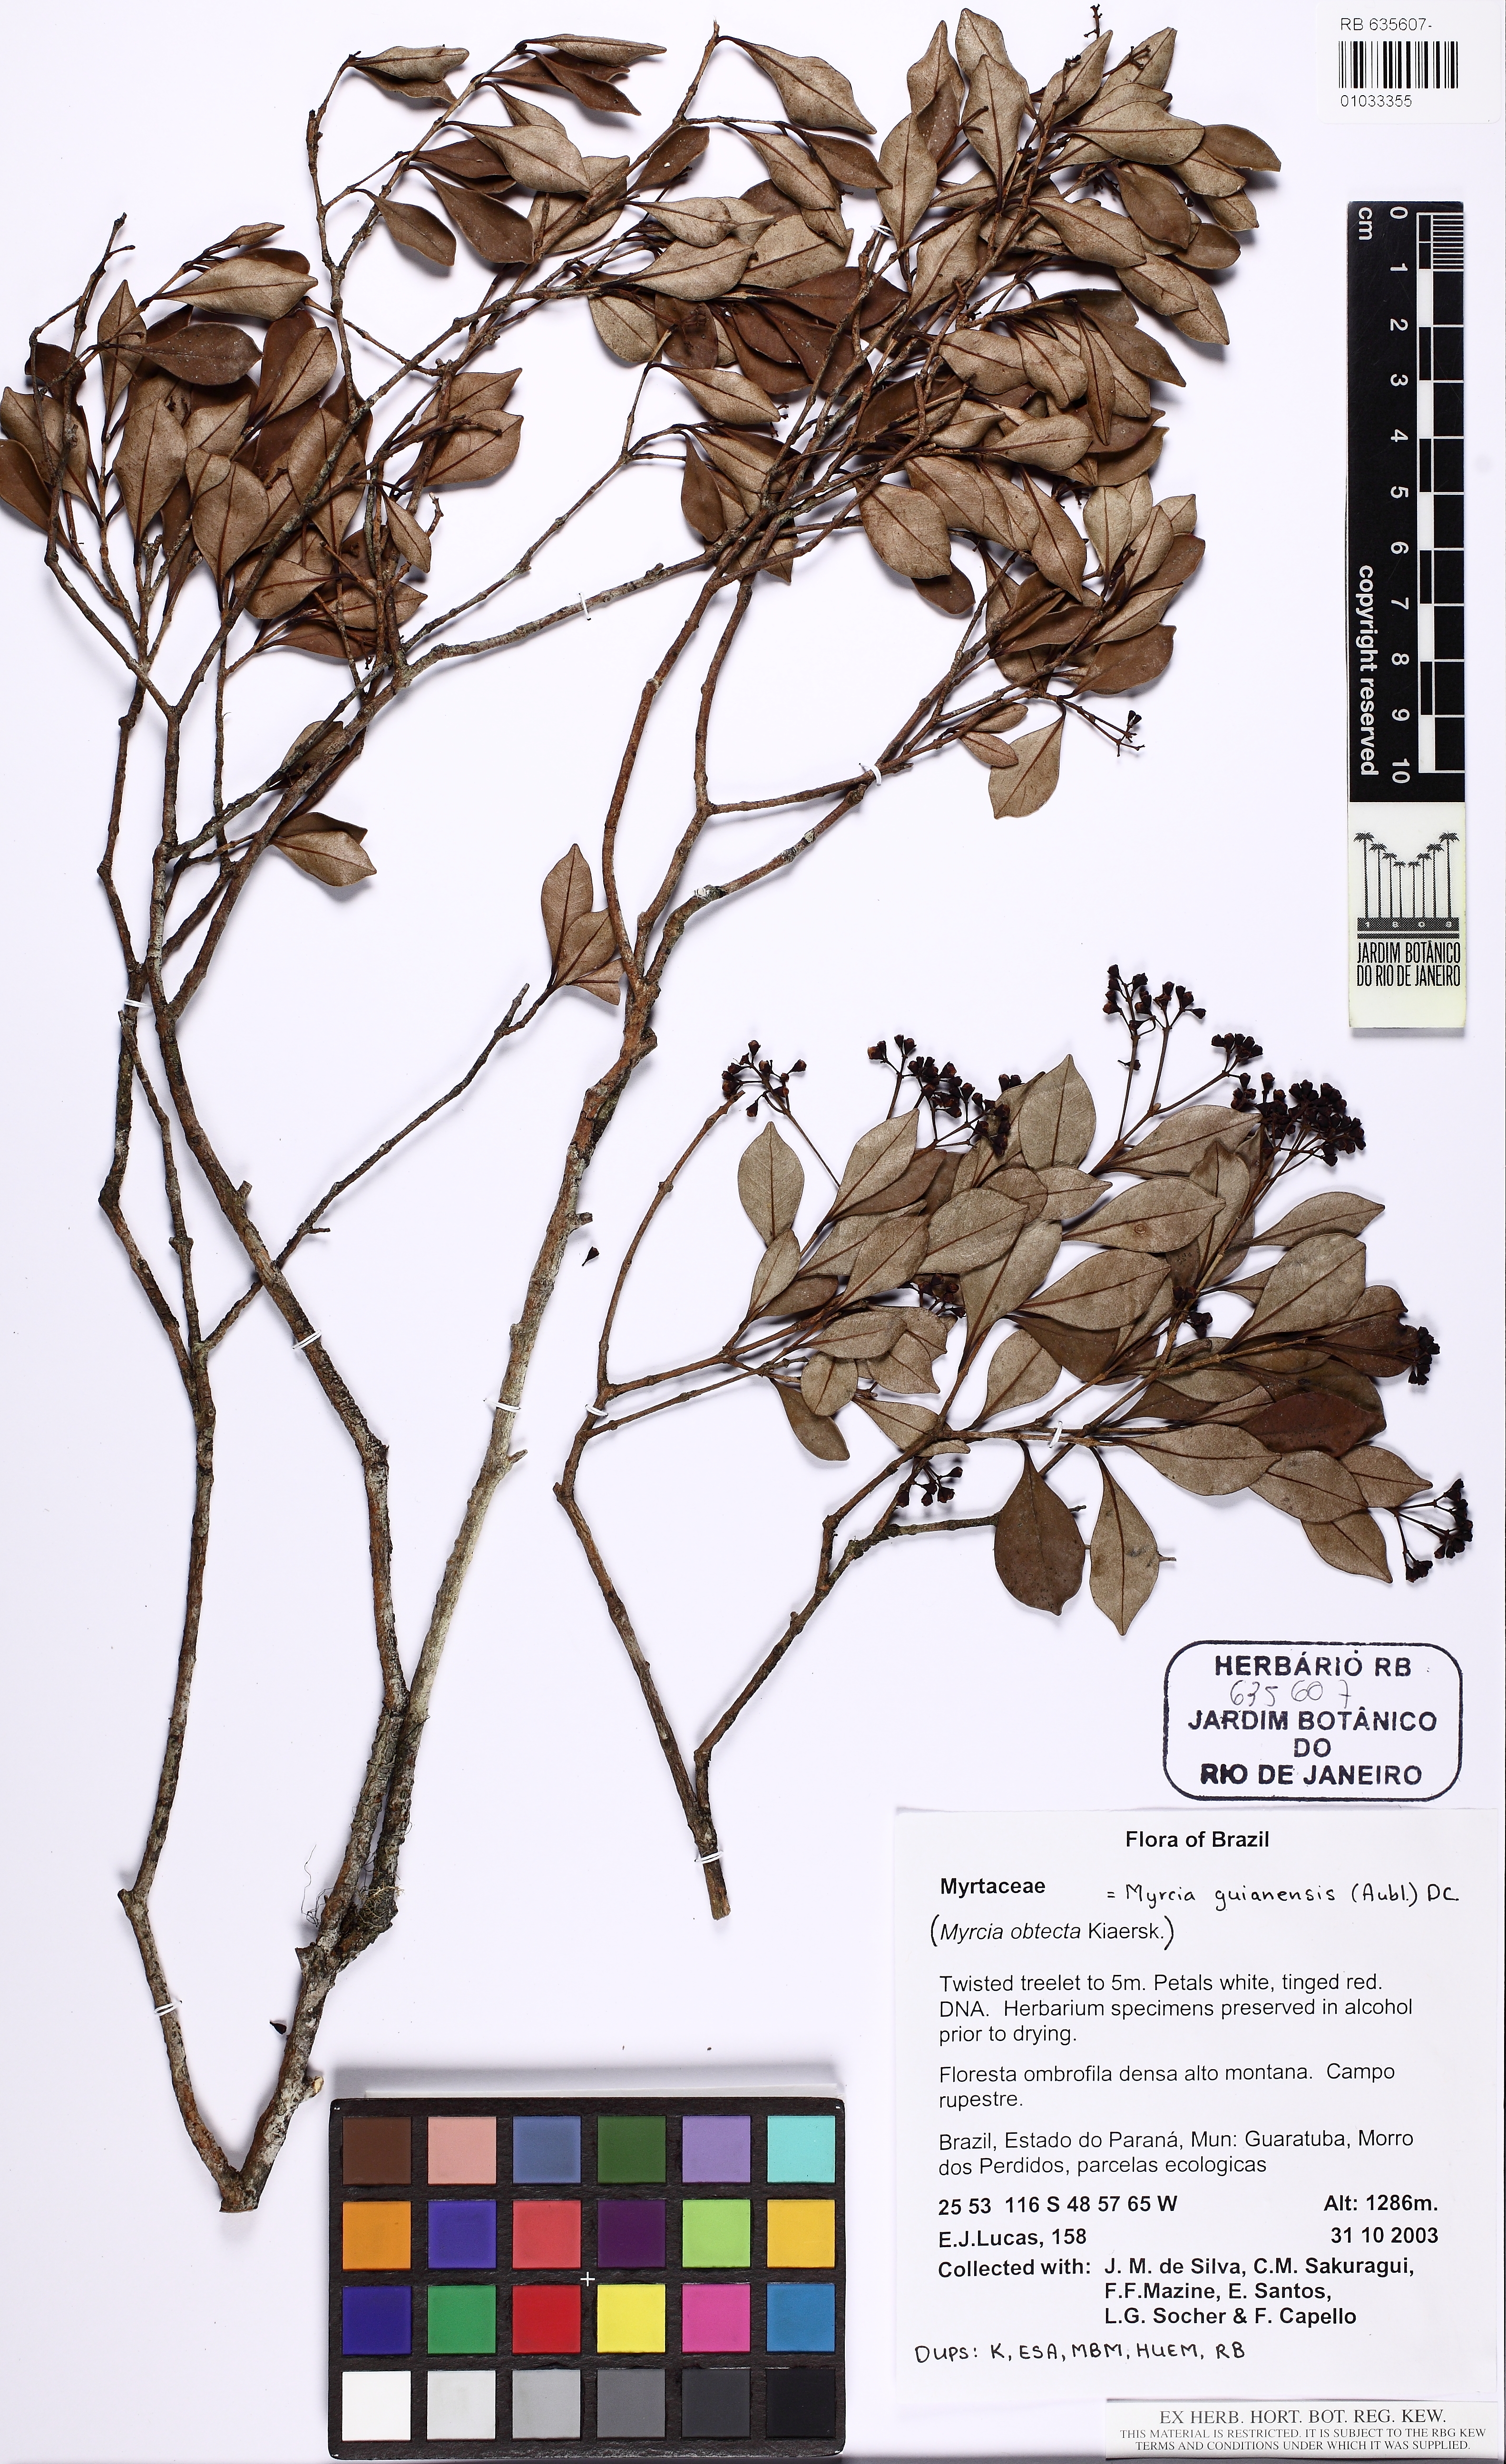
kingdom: Plantae
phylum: Tracheophyta
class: Magnoliopsida
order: Myrtales
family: Myrtaceae
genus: Myrcia
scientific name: Myrcia guianensis
